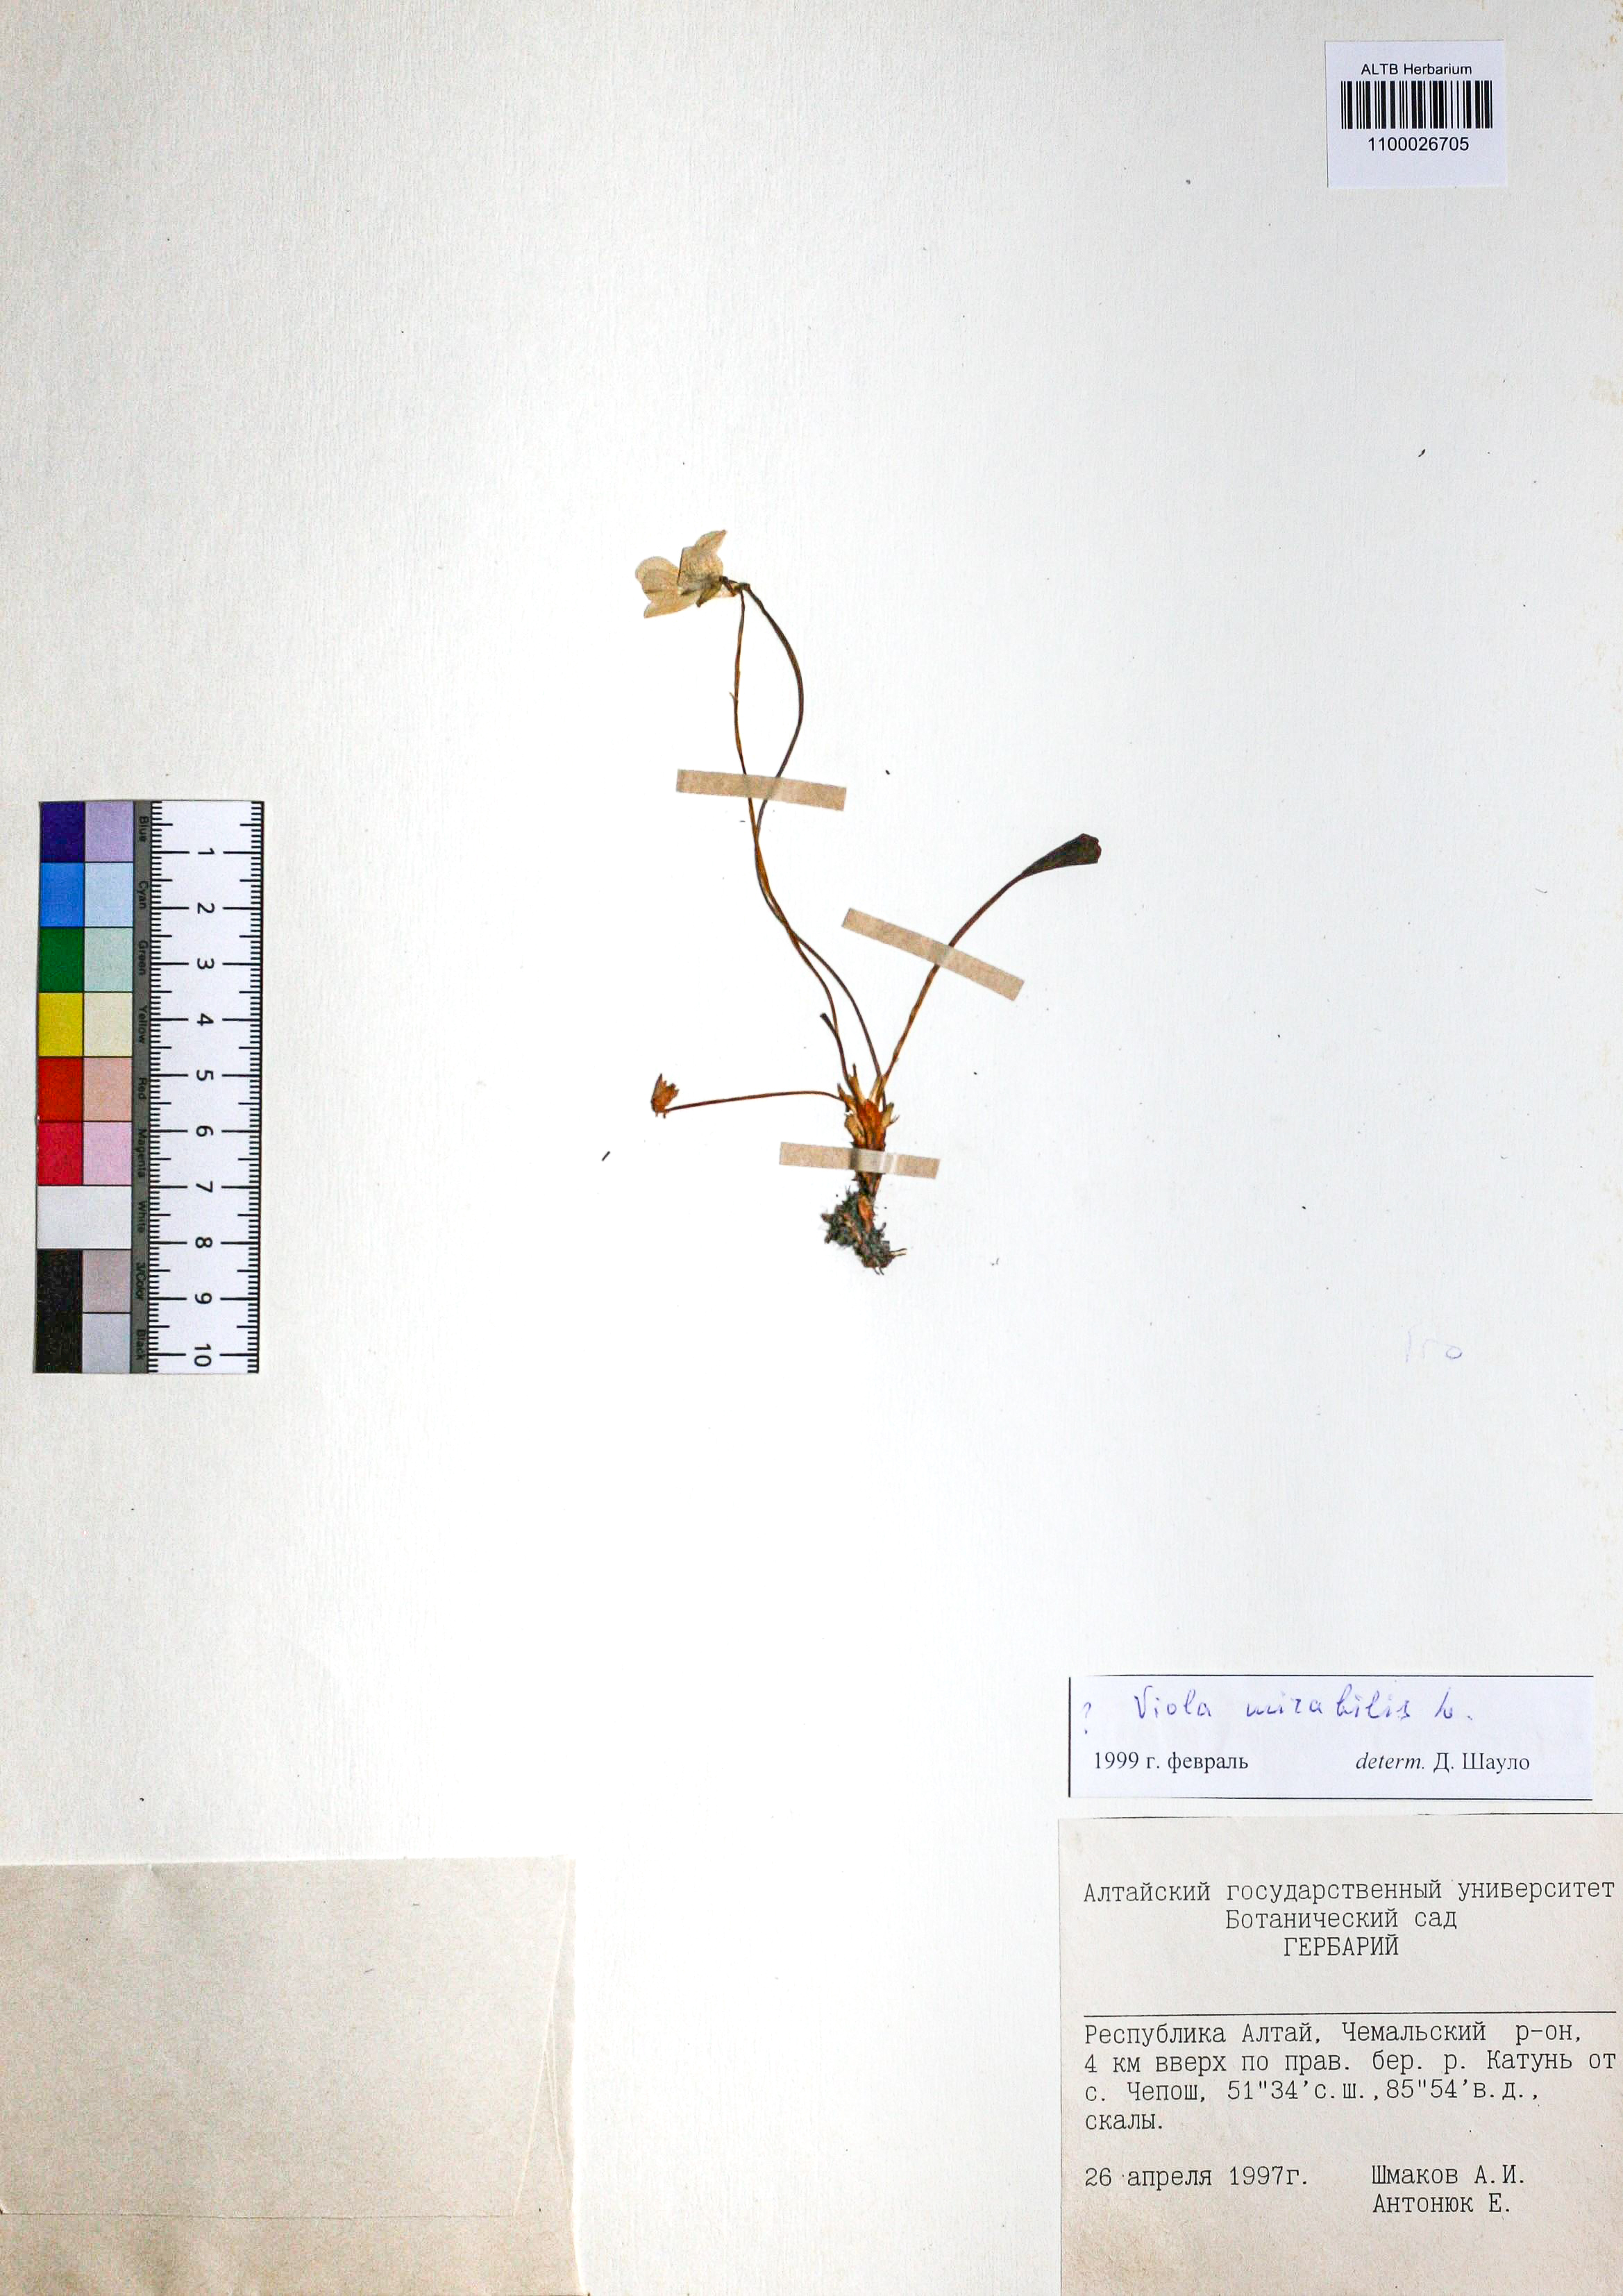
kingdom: Plantae
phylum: Tracheophyta
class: Magnoliopsida
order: Malpighiales
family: Violaceae
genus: Viola
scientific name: Viola mirabilis
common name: Wonder violet
